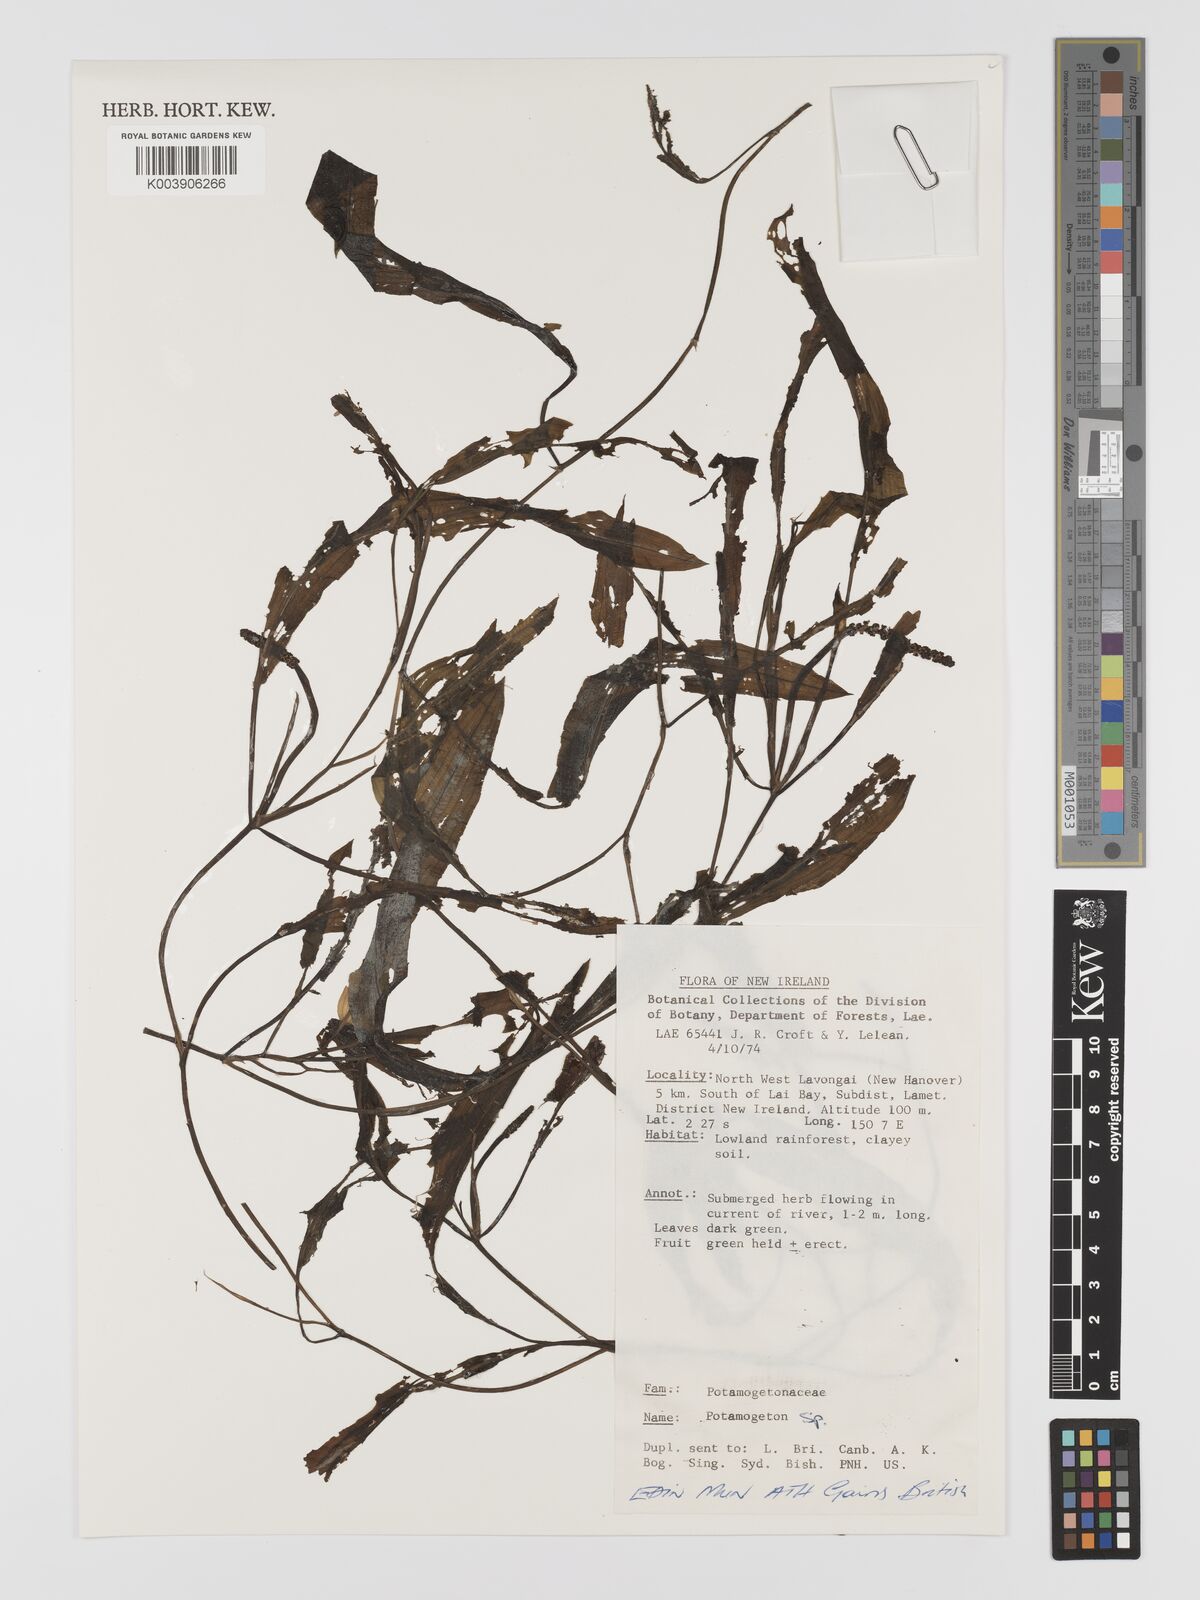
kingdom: Plantae
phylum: Tracheophyta
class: Liliopsida
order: Alismatales
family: Potamogetonaceae
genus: Potamogeton
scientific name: Potamogeton
